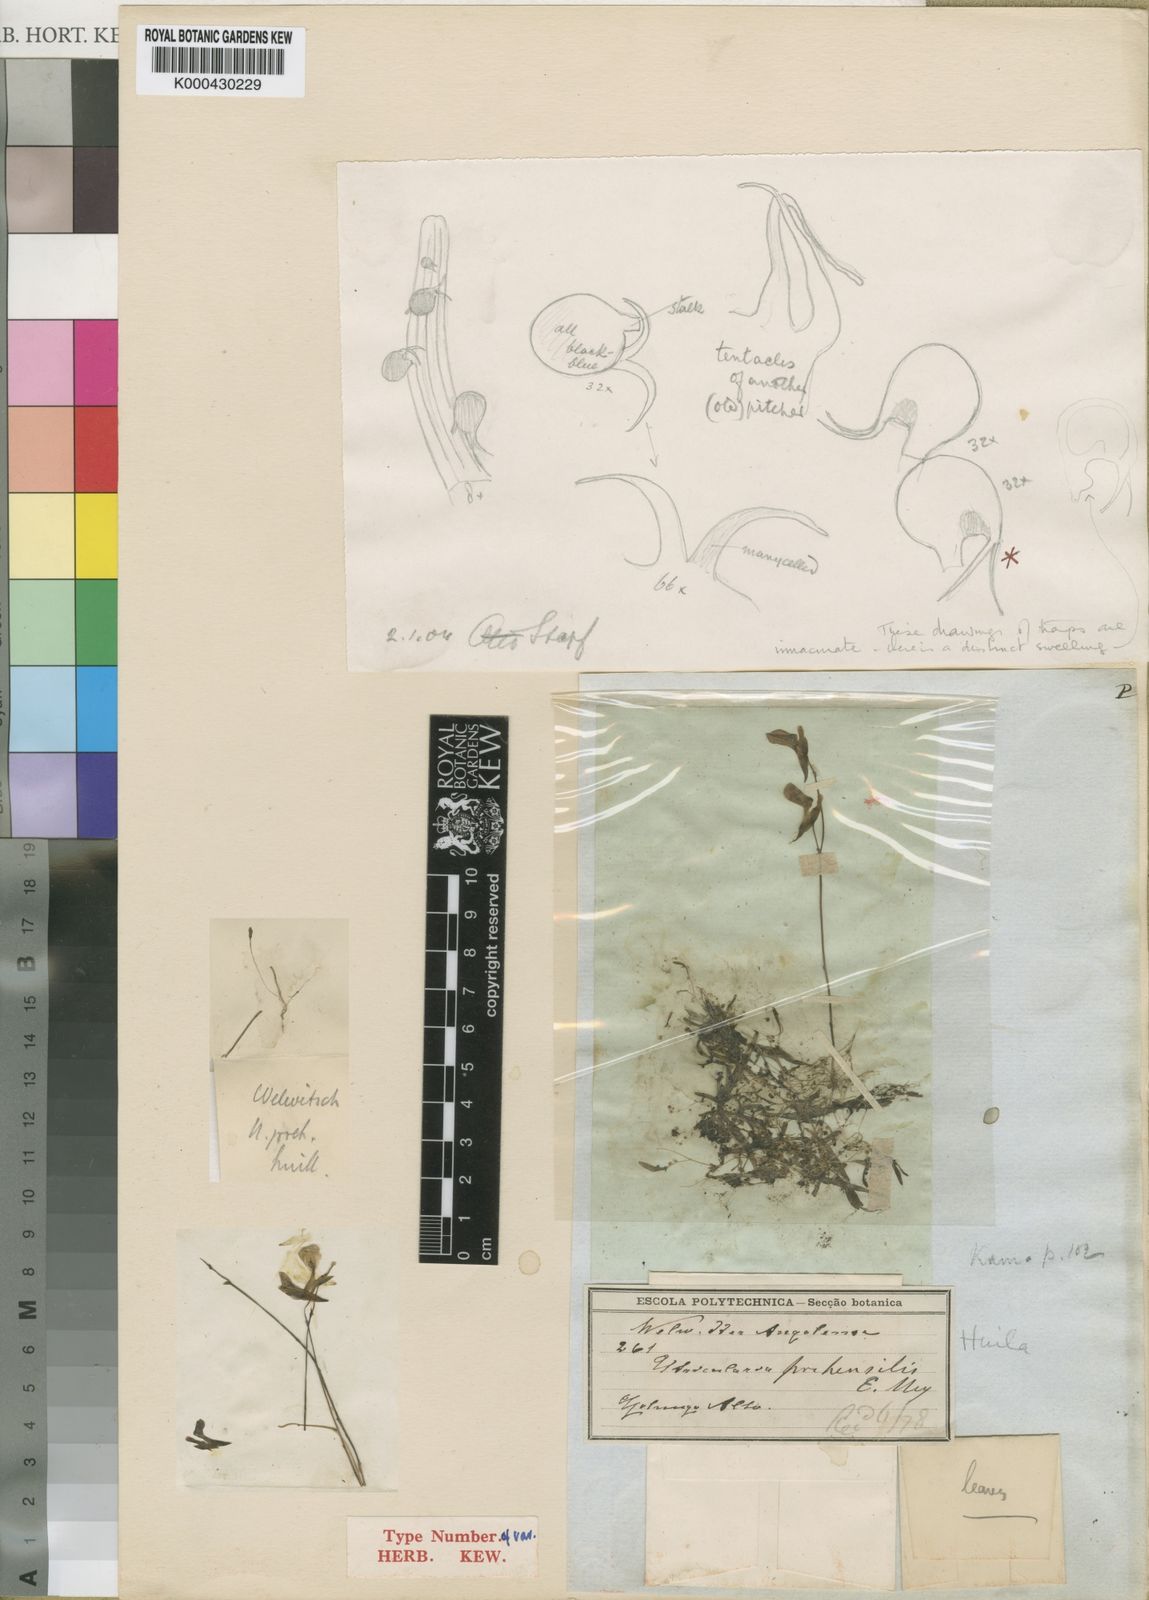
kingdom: Plantae
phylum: Tracheophyta
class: Magnoliopsida
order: Lamiales
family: Lentibulariaceae
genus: Utricularia
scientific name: Utricularia prehensilis
